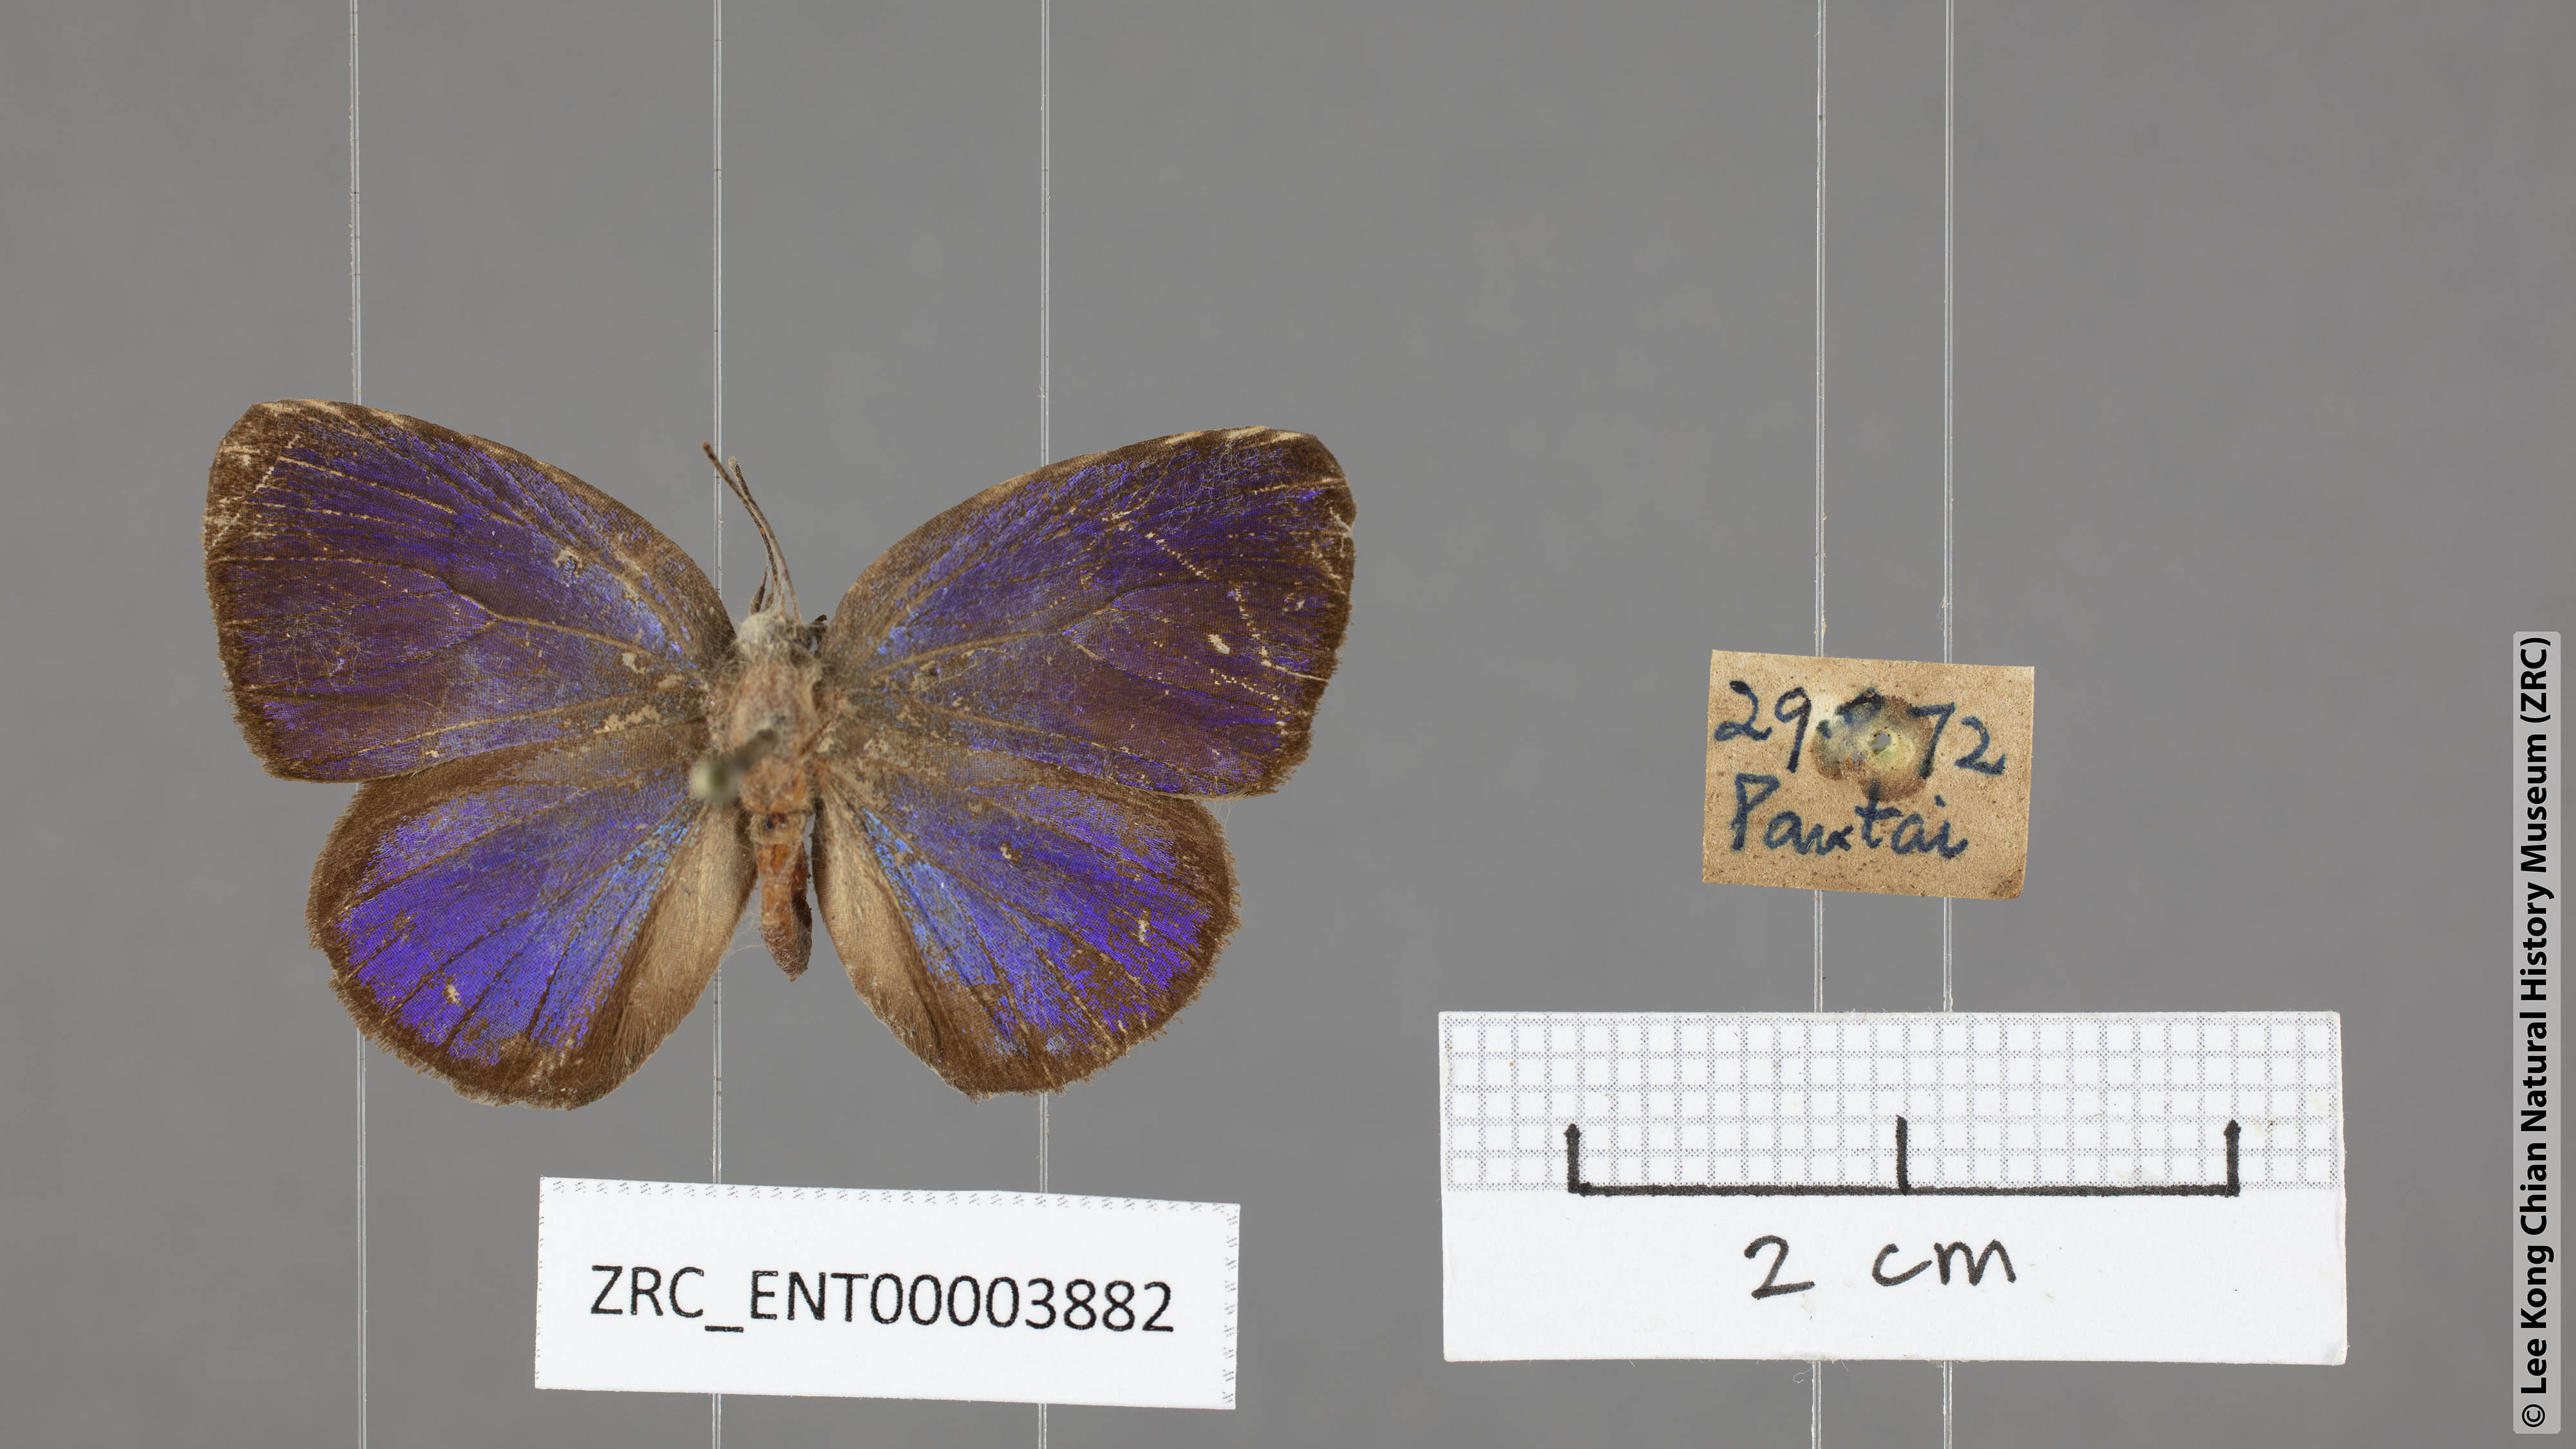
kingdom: Animalia
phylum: Arthropoda
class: Insecta
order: Lepidoptera
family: Lycaenidae
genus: Arhopala
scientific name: Arhopala avatha
